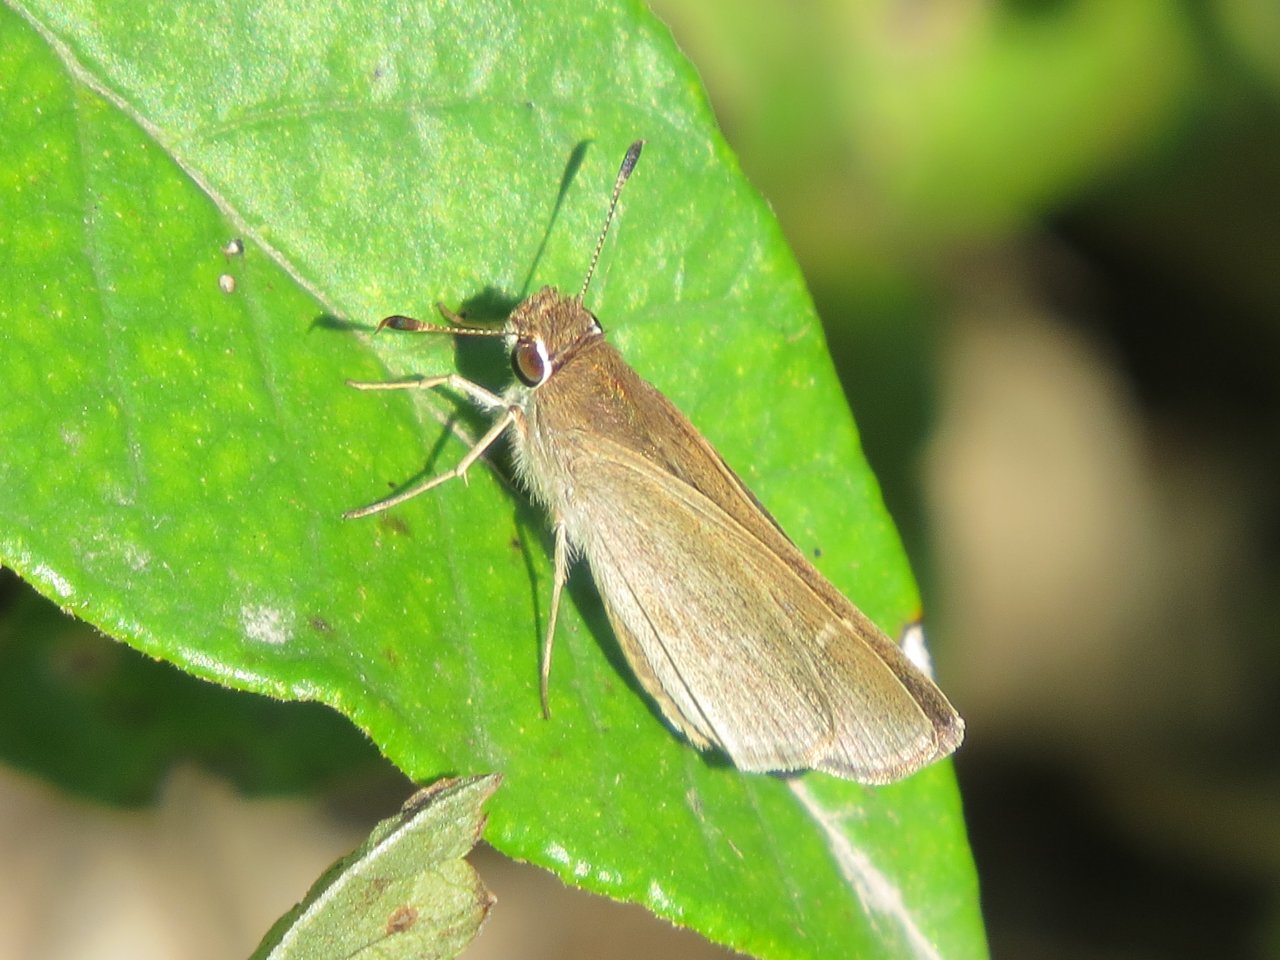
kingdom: Animalia
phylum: Arthropoda
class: Insecta
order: Lepidoptera
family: Hesperiidae
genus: Lerodea
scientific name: Lerodea eufala
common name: Eufala Skipper
